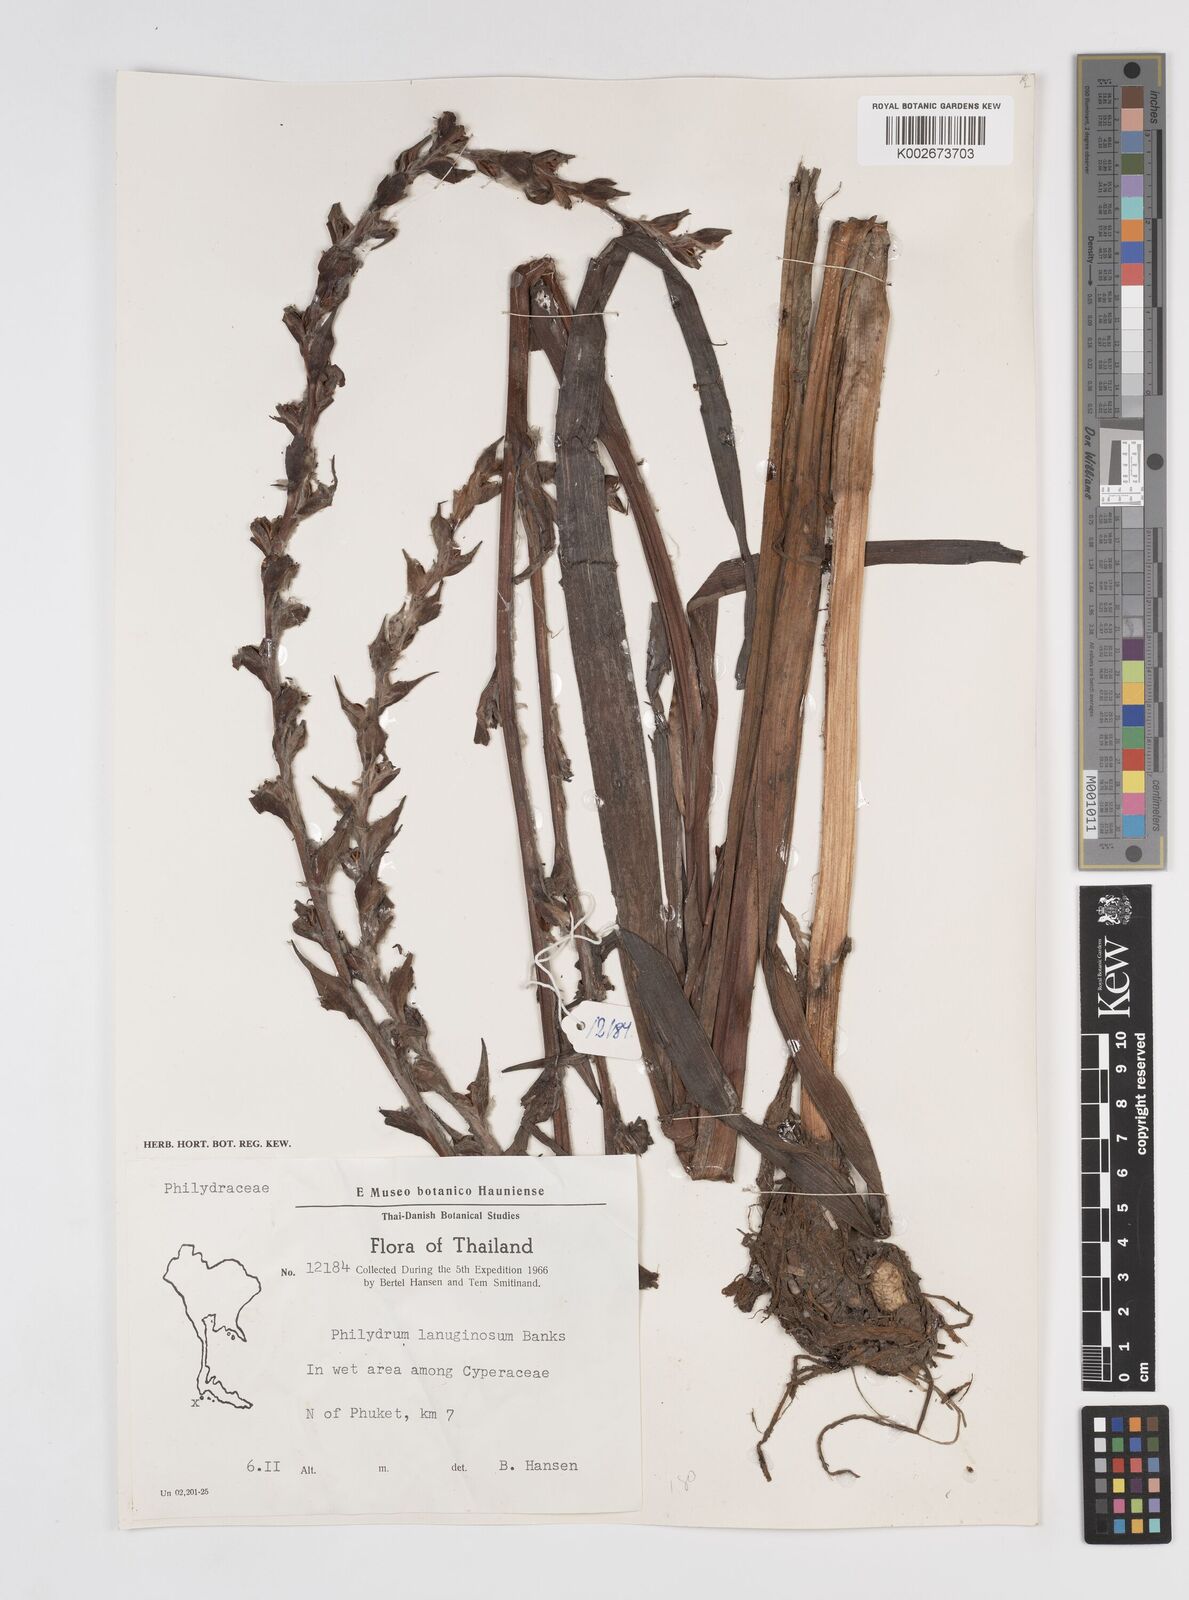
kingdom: Plantae
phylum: Tracheophyta
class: Liliopsida
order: Commelinales
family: Philydraceae
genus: Philydrum
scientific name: Philydrum lanuginosum
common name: Woolly frog's mouth
